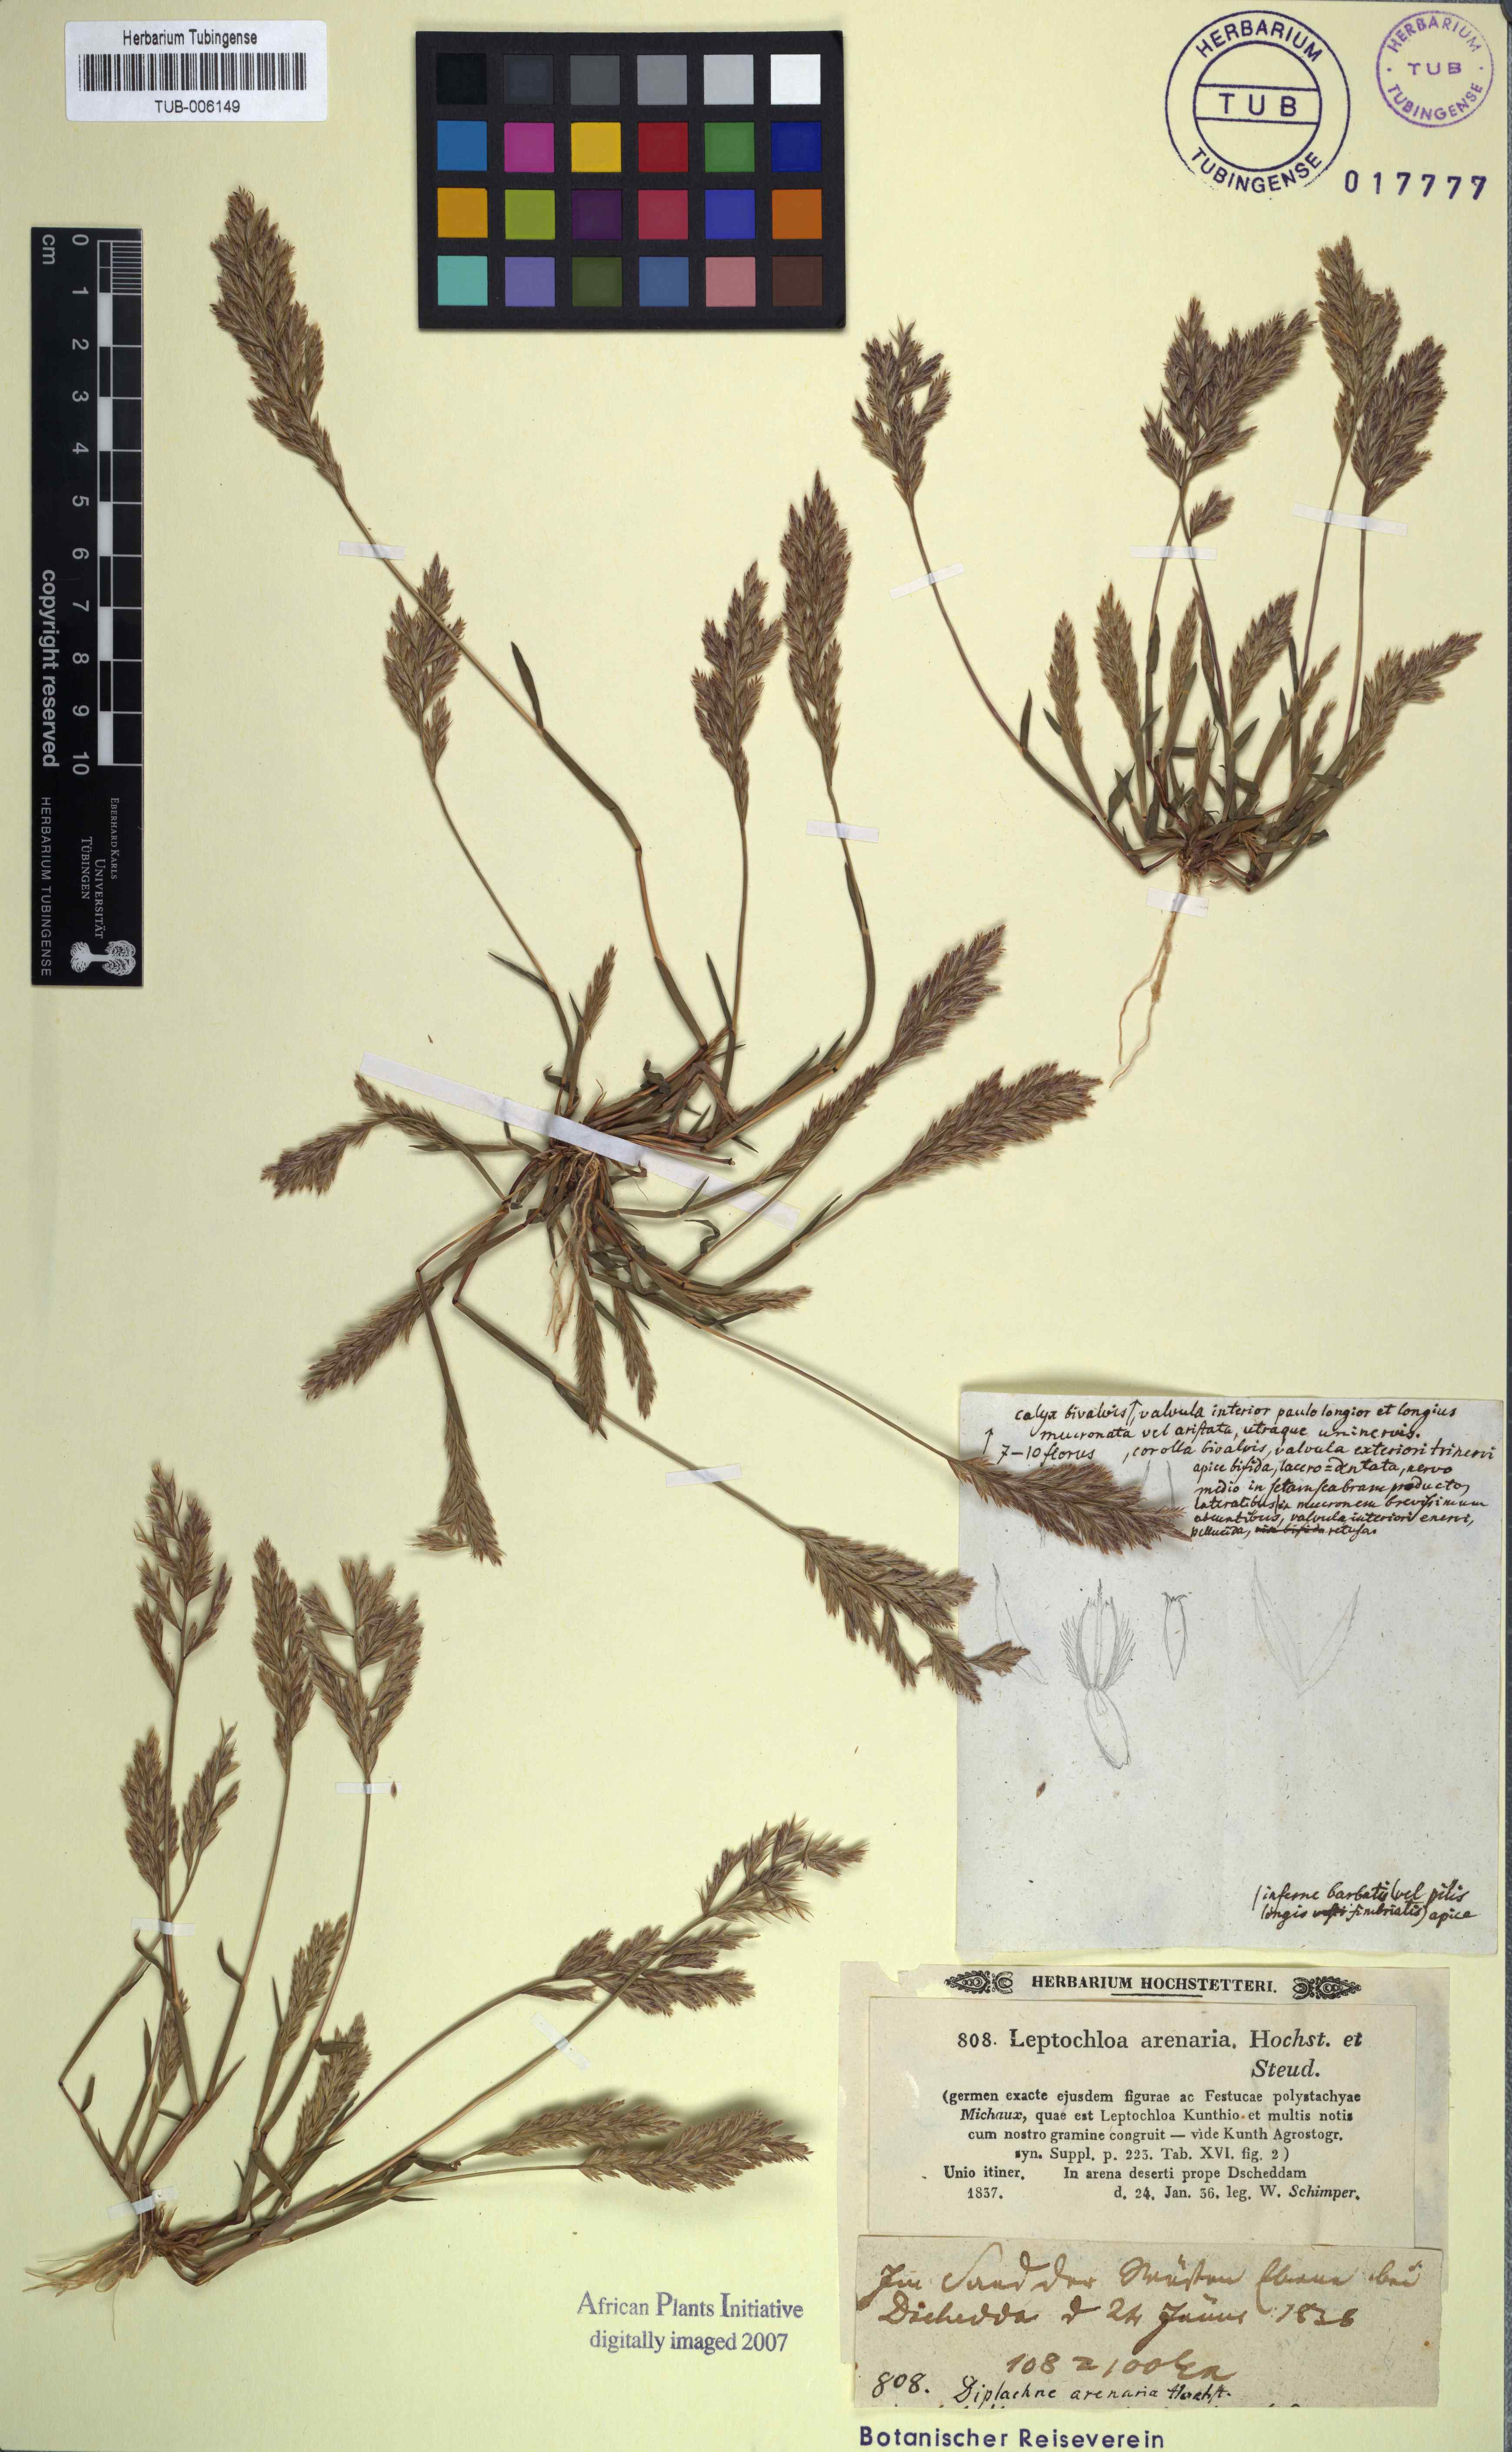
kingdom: Plantae
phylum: Tracheophyta
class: Liliopsida
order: Poales
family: Poaceae
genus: Diplachne
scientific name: Diplachne arenaria
